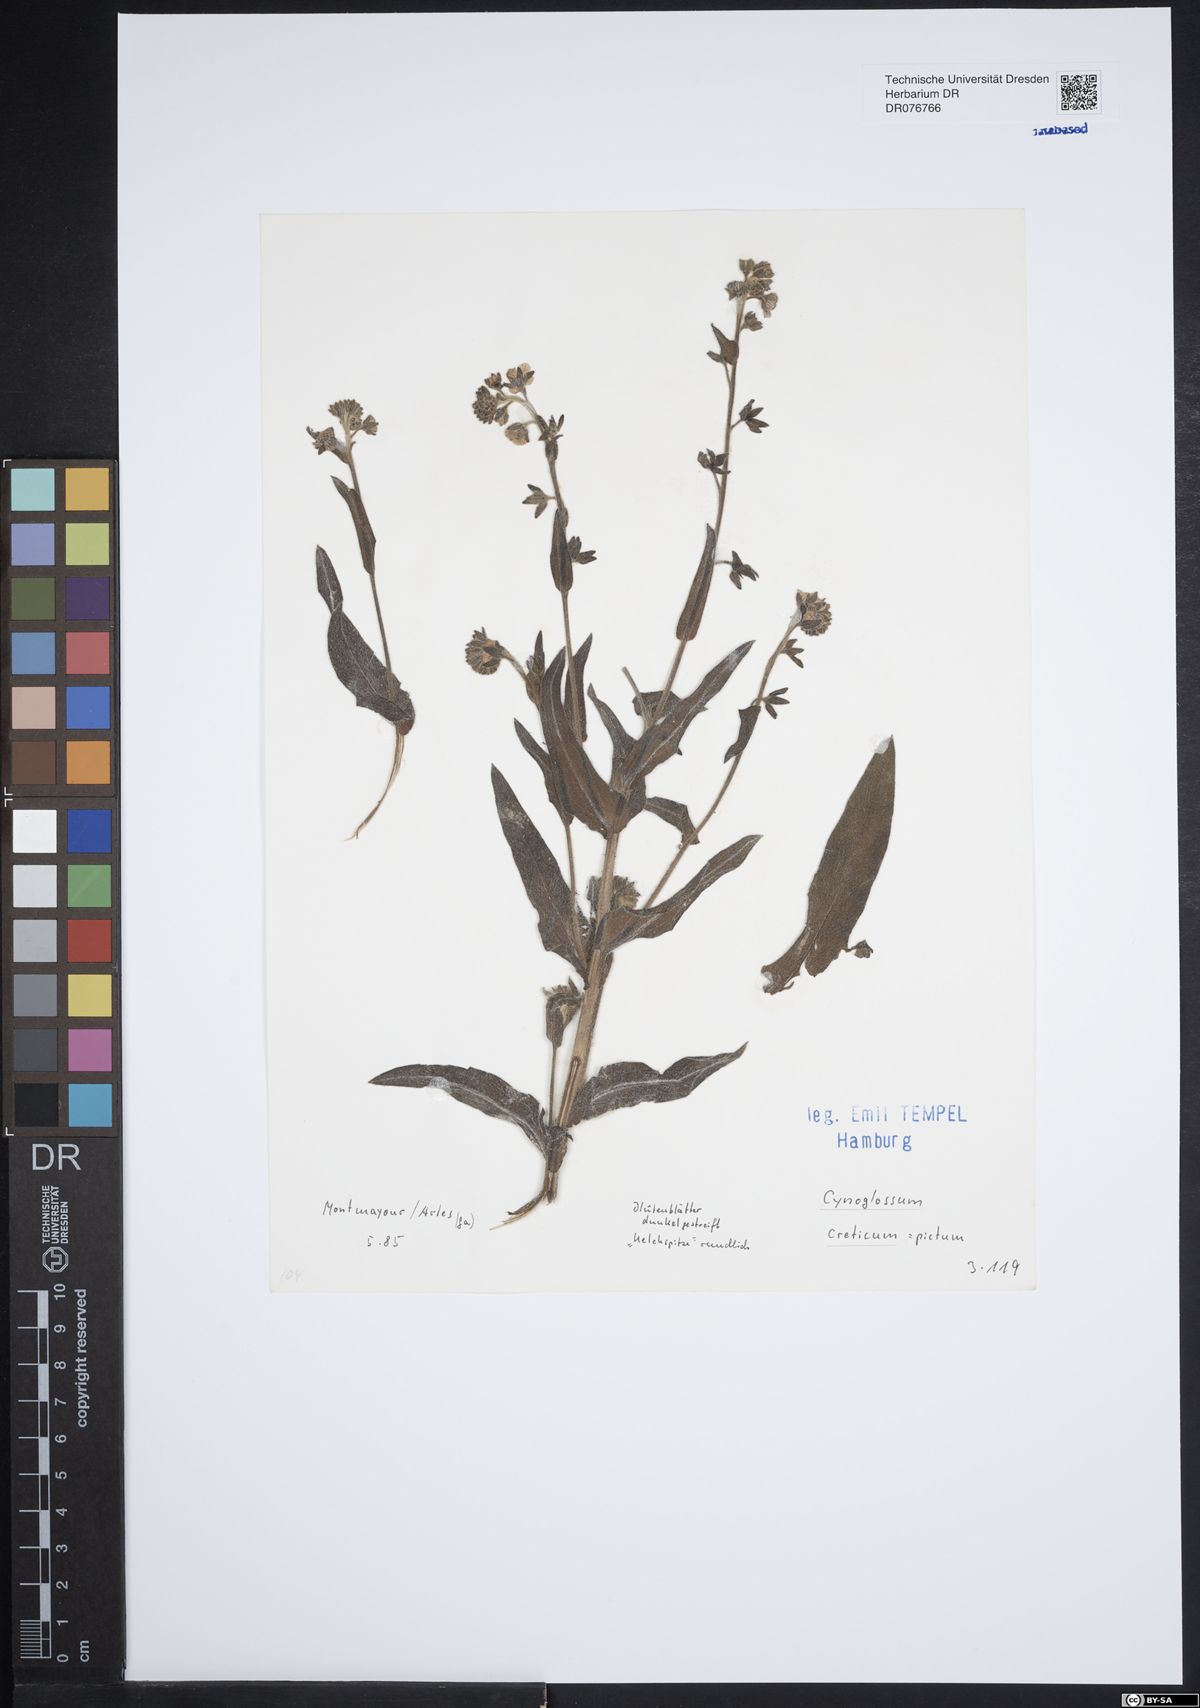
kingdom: Plantae
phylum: Tracheophyta
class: Magnoliopsida
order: Boraginales
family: Boraginaceae
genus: Cynoglossum
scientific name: Cynoglossum creticum
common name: Blue hound's tongue
